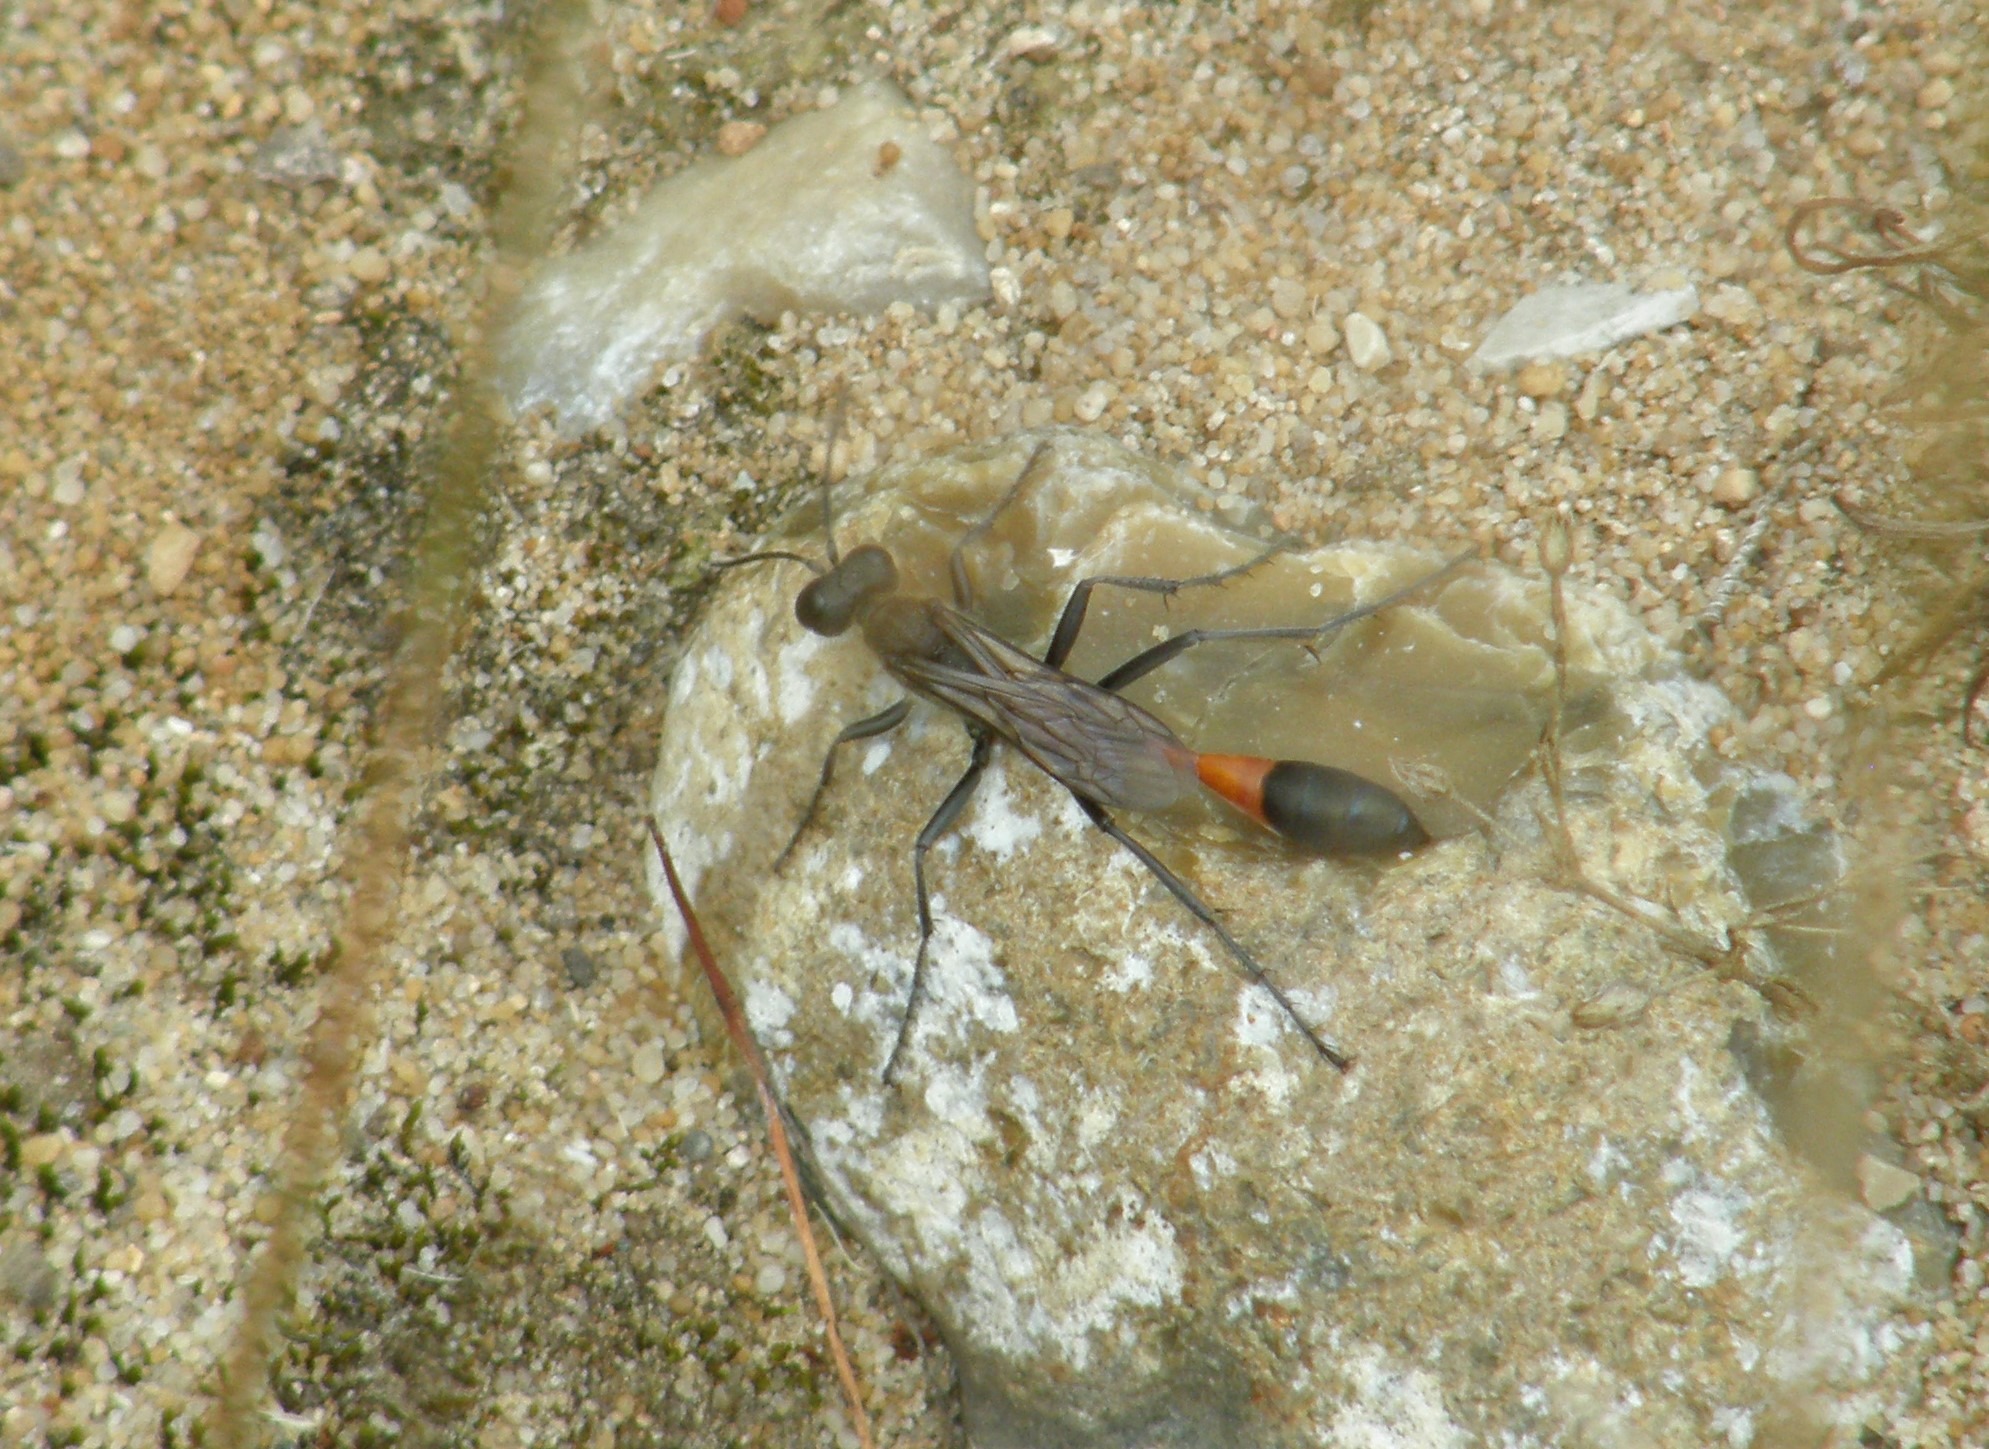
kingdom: Animalia
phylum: Arthropoda
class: Insecta
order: Hymenoptera
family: Sphecidae
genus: Ammophila
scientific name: Ammophila sabulosa
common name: Almindelig sandhveps
